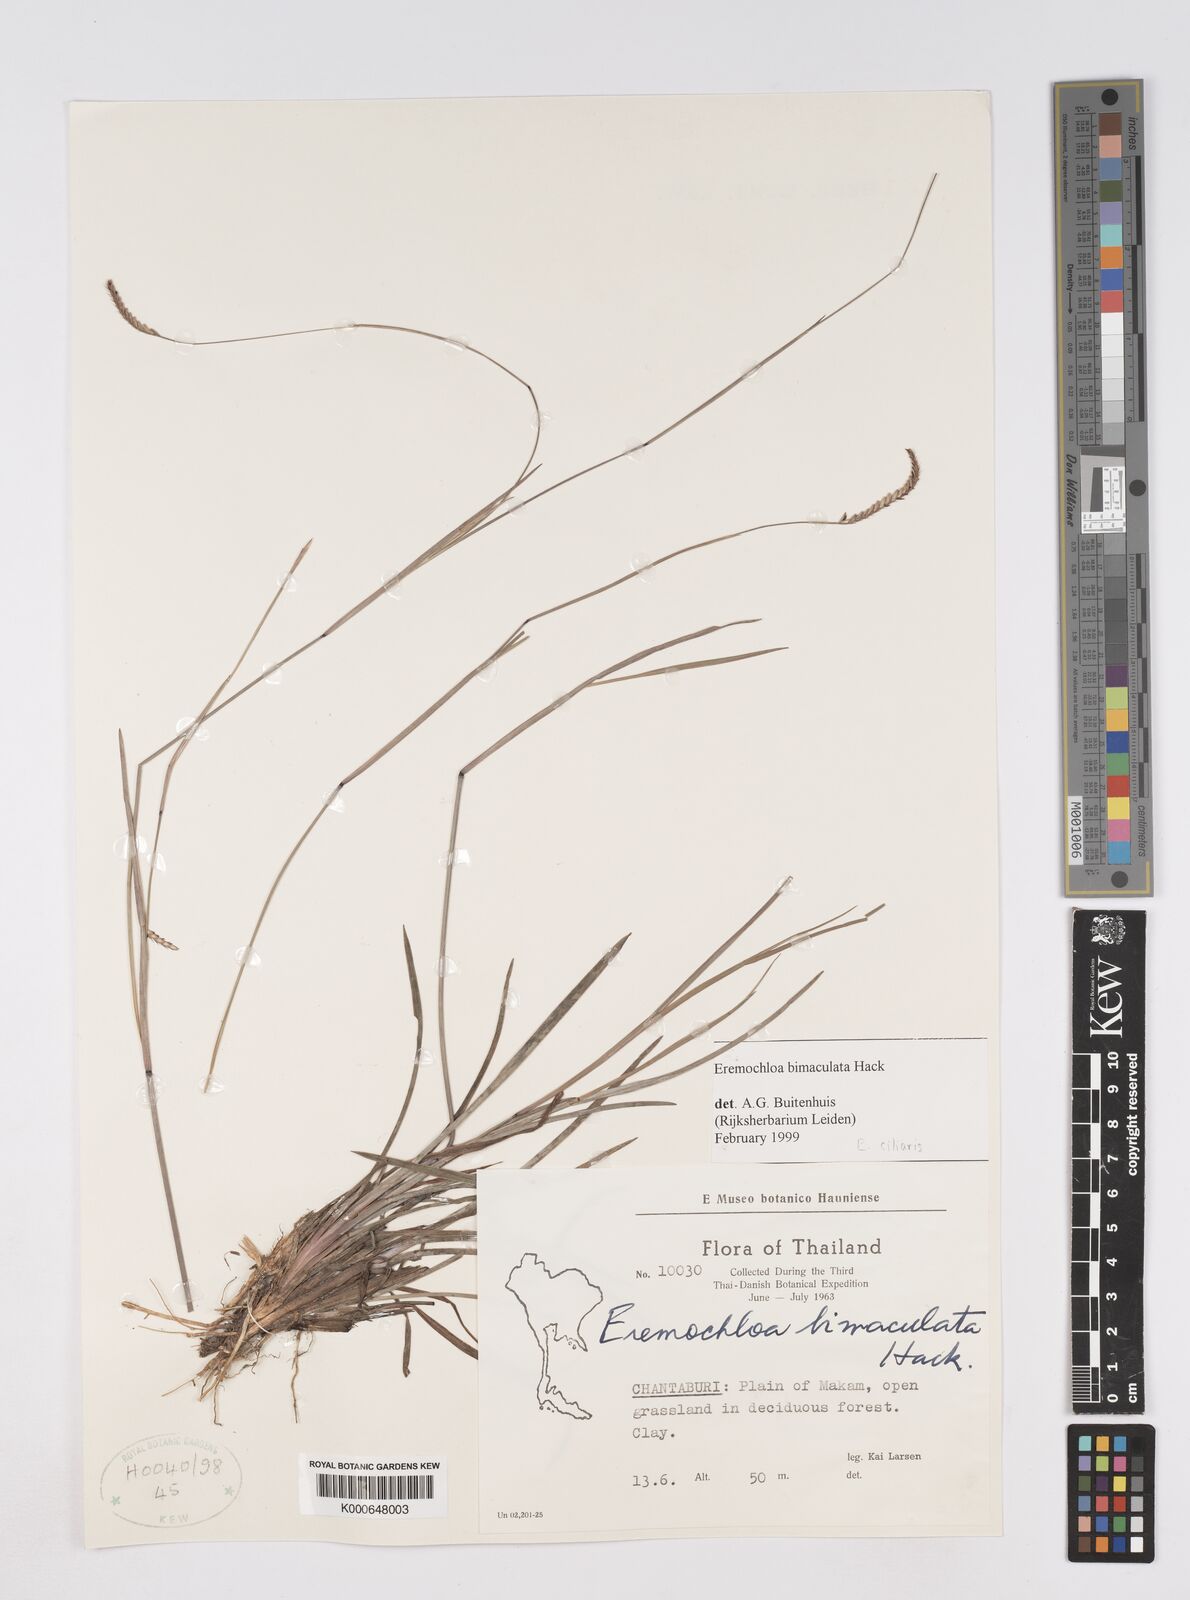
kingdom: Plantae
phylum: Tracheophyta
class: Liliopsida
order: Poales
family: Poaceae
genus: Eremochloa
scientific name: Eremochloa ciliaris
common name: Fringed centipede grass
